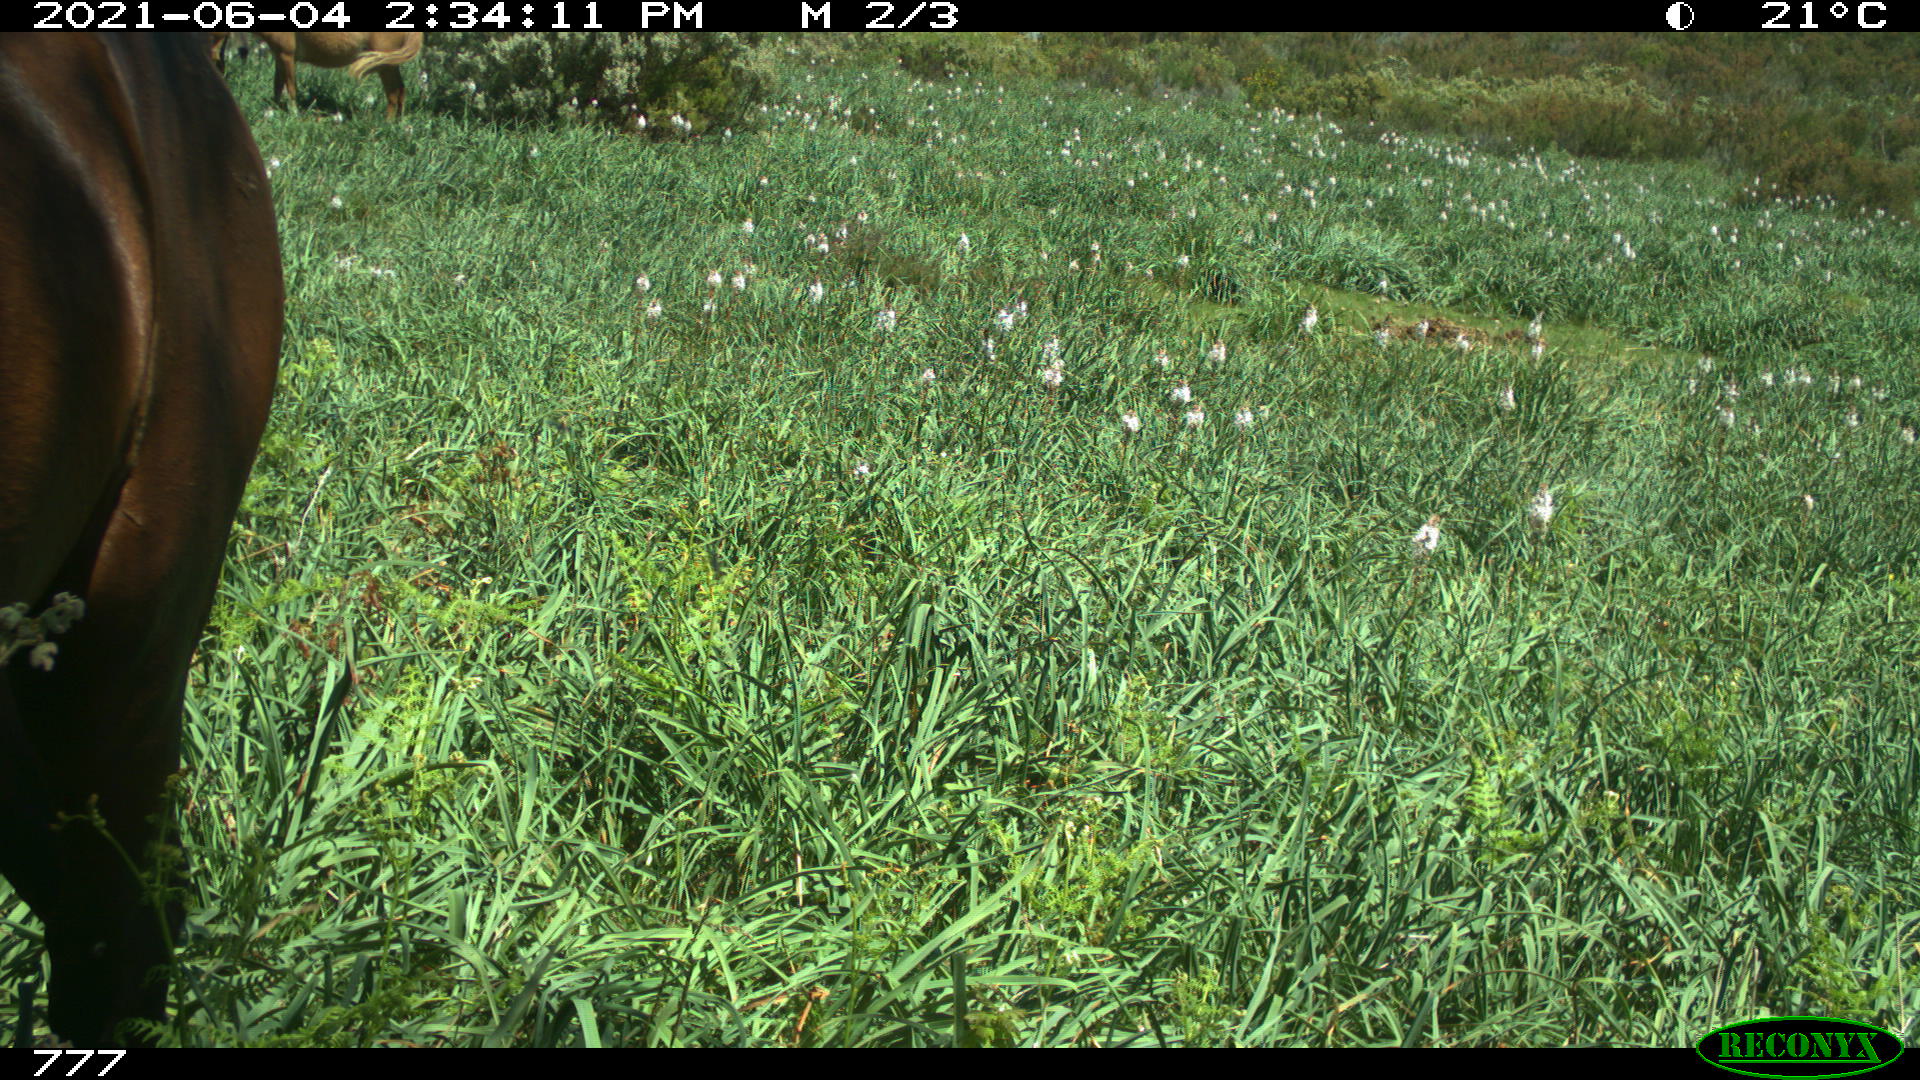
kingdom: Animalia
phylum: Chordata
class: Mammalia
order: Perissodactyla
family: Equidae
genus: Equus
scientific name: Equus caballus
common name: Horse
